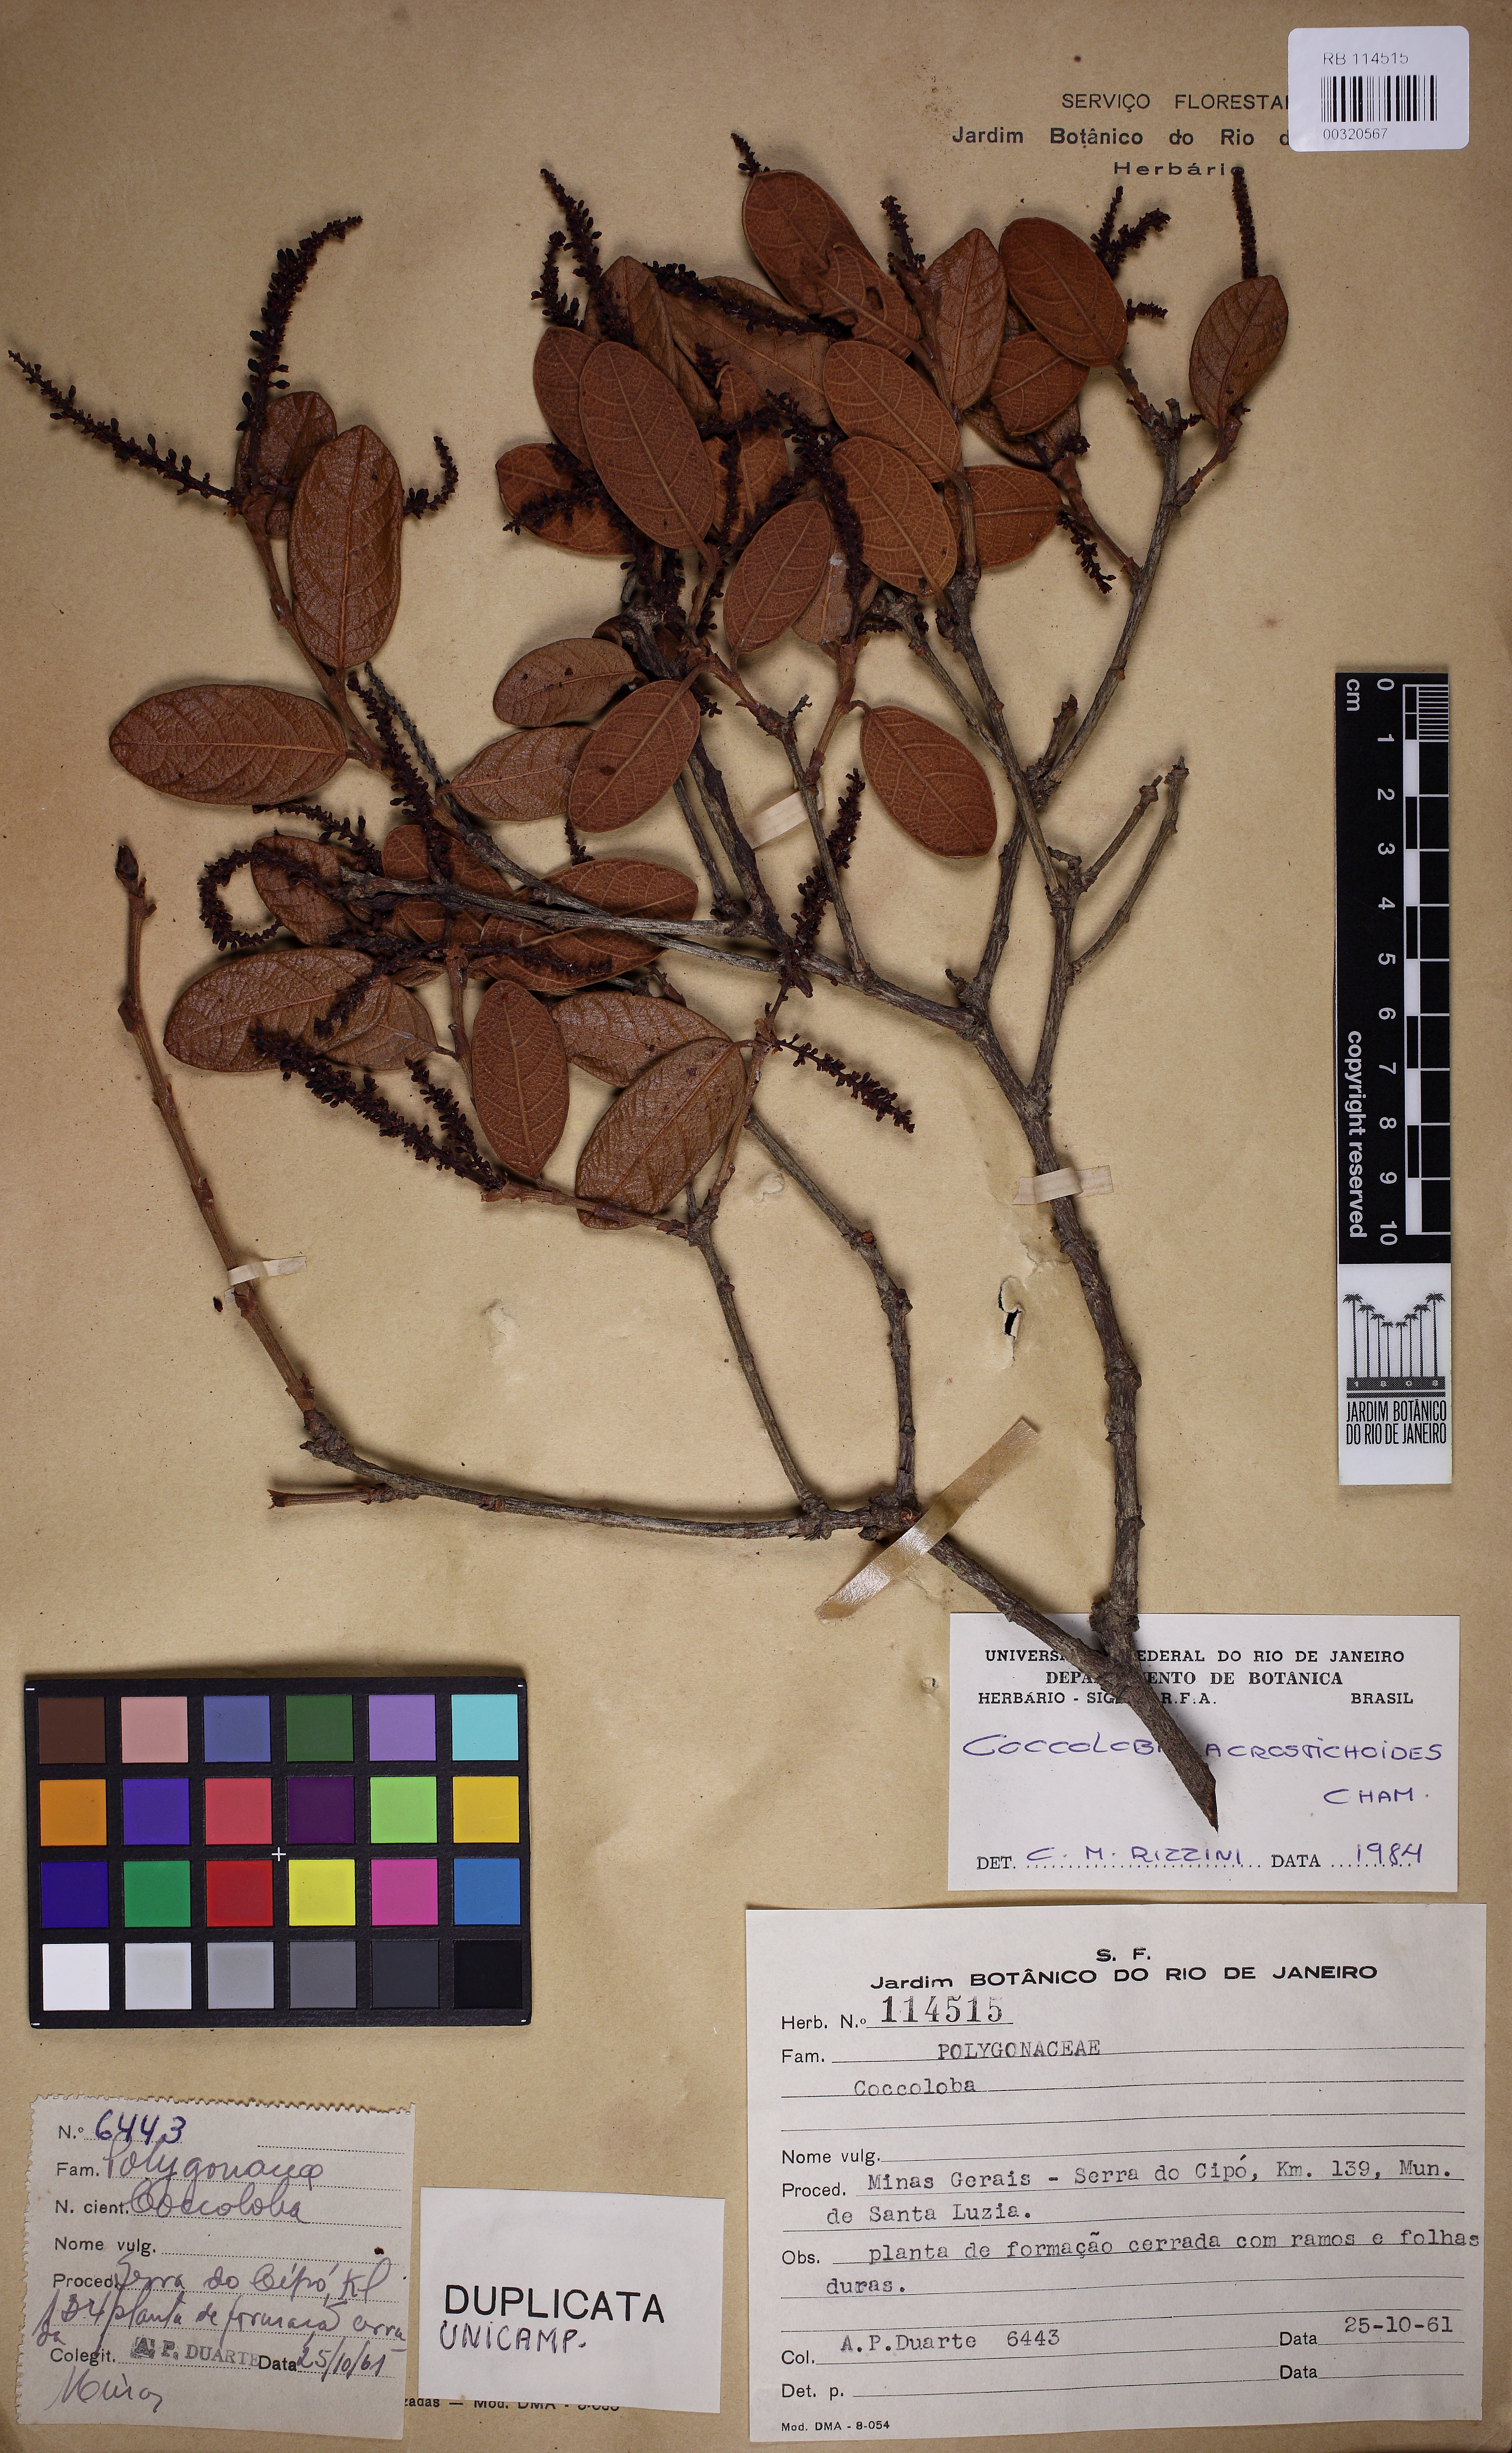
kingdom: Plantae
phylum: Tracheophyta
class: Magnoliopsida
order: Caryophyllales
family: Polygonaceae
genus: Coccoloba
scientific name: Coccoloba acrostichoides
